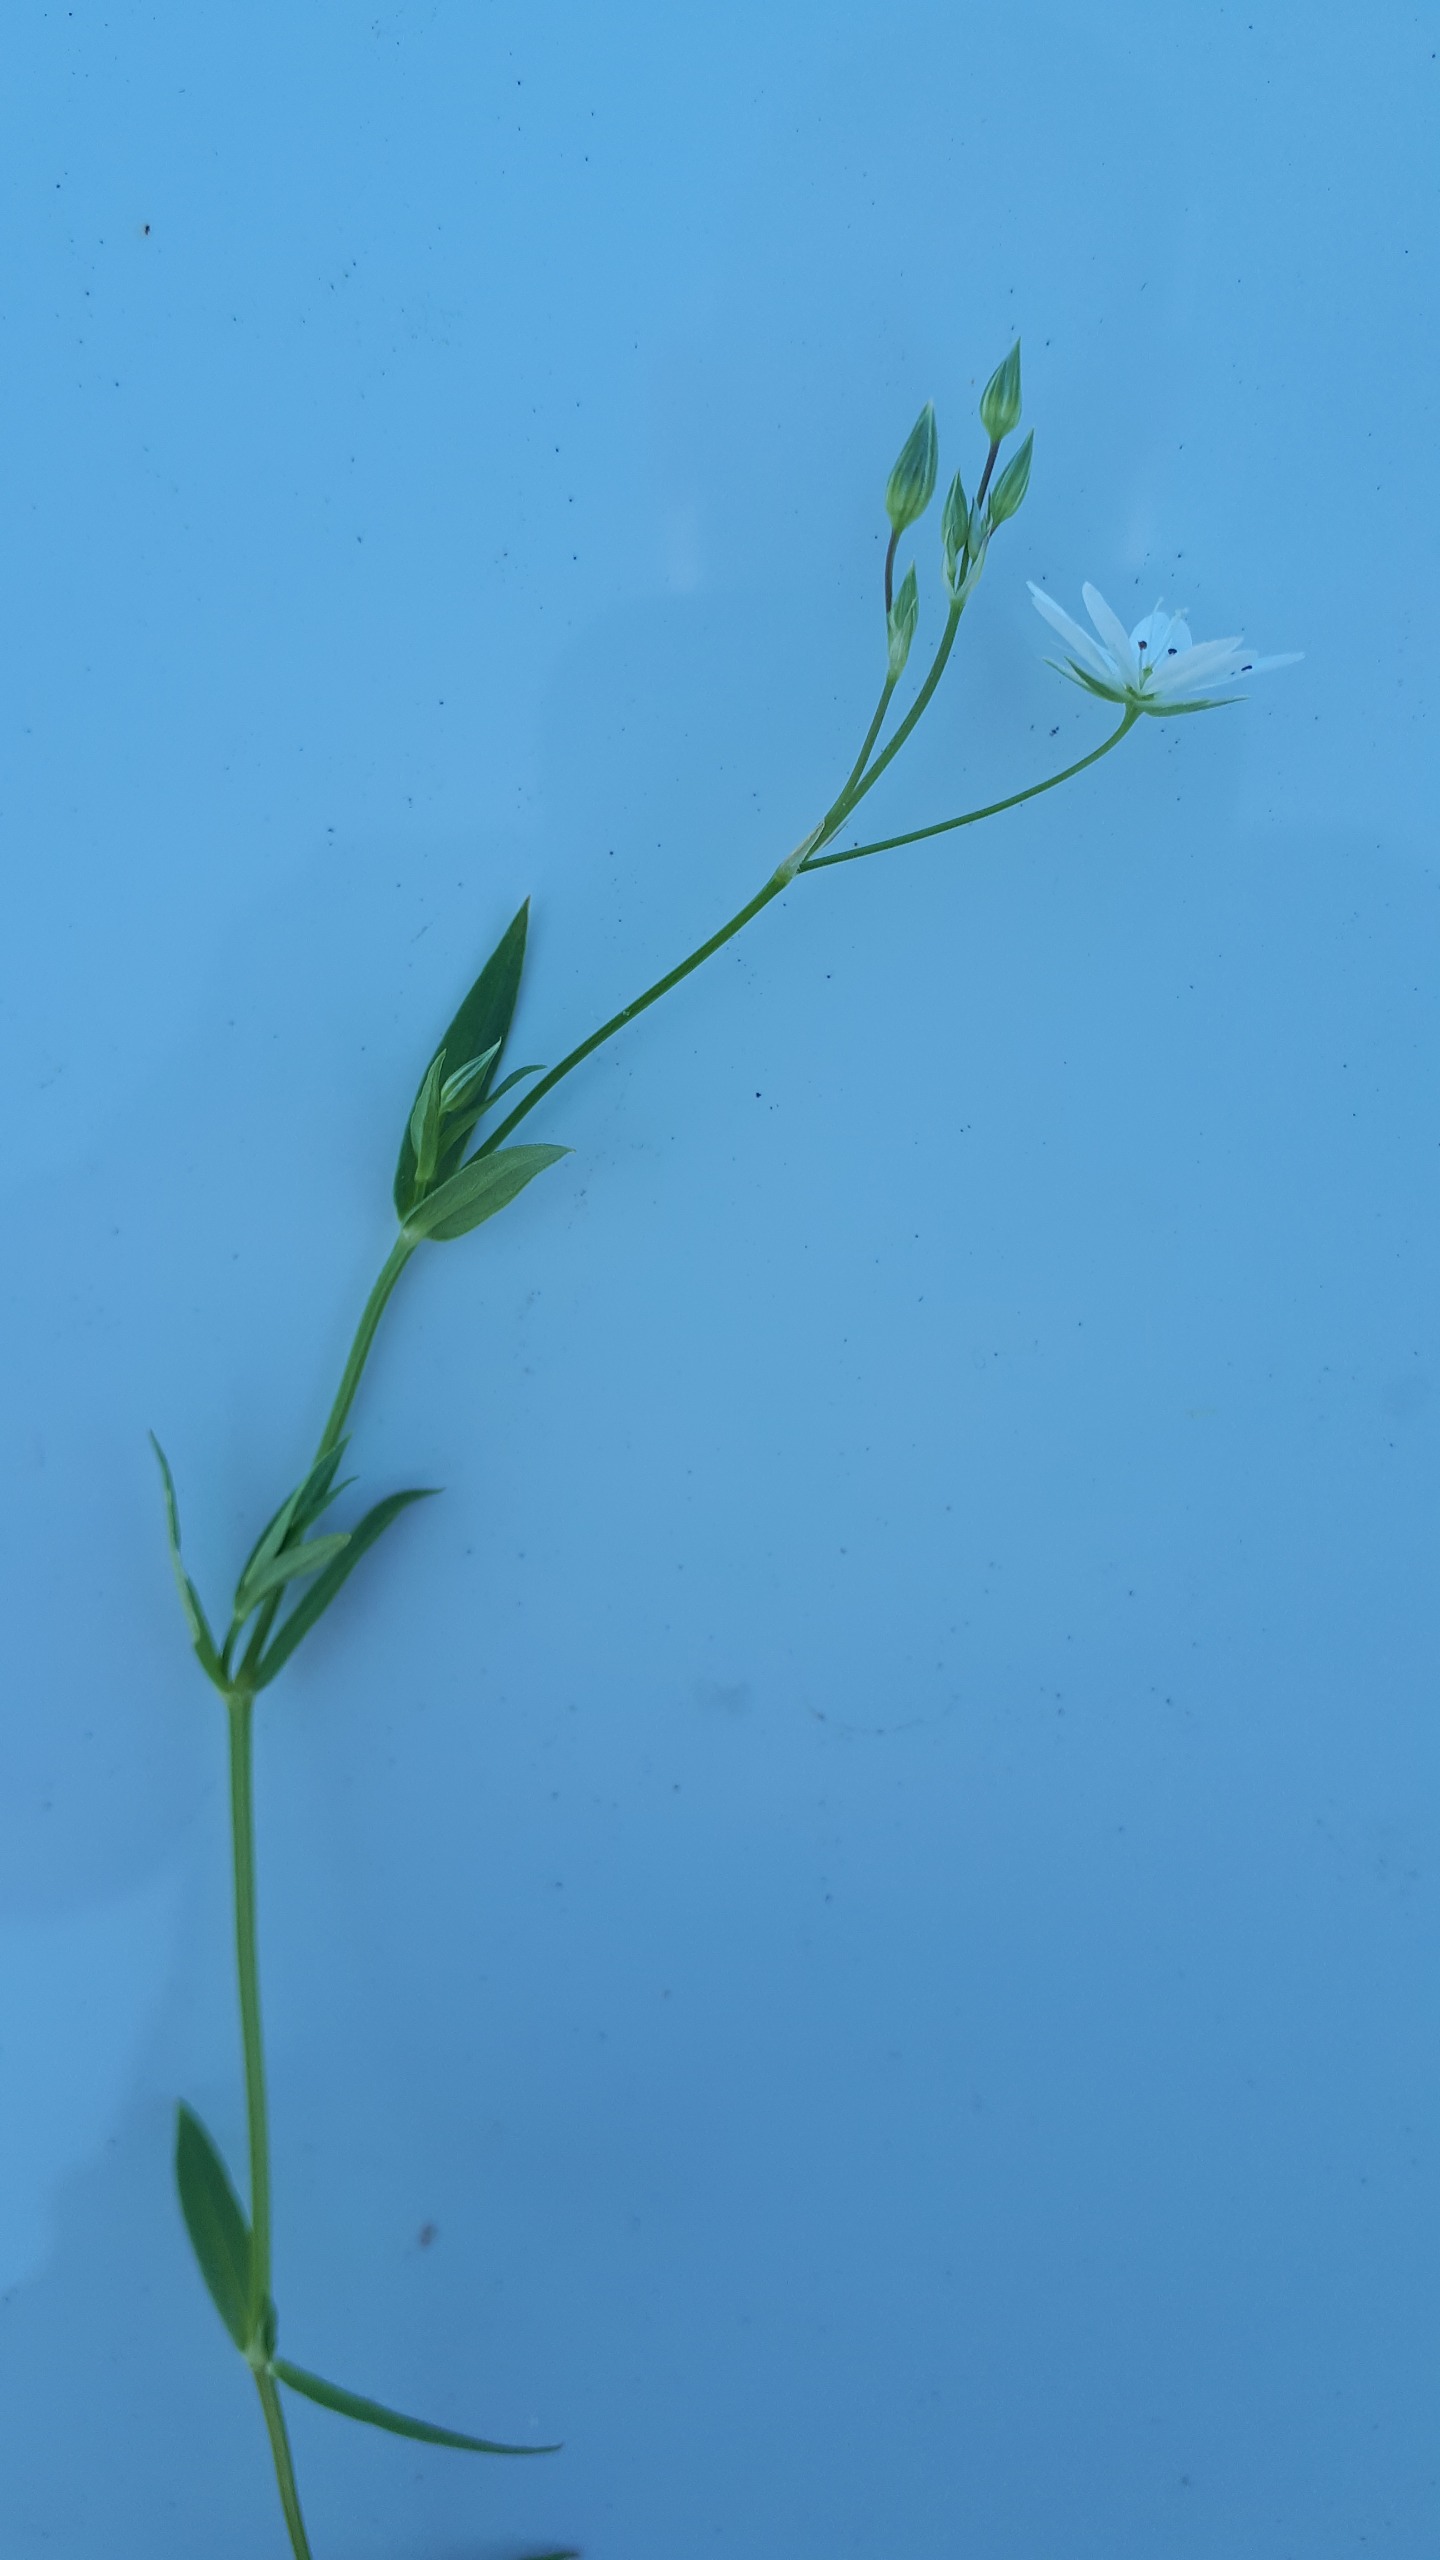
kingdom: Plantae
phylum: Tracheophyta
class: Magnoliopsida
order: Caryophyllales
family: Caryophyllaceae
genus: Stellaria
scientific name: Stellaria graminea
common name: Græsbladet fladstjerne
